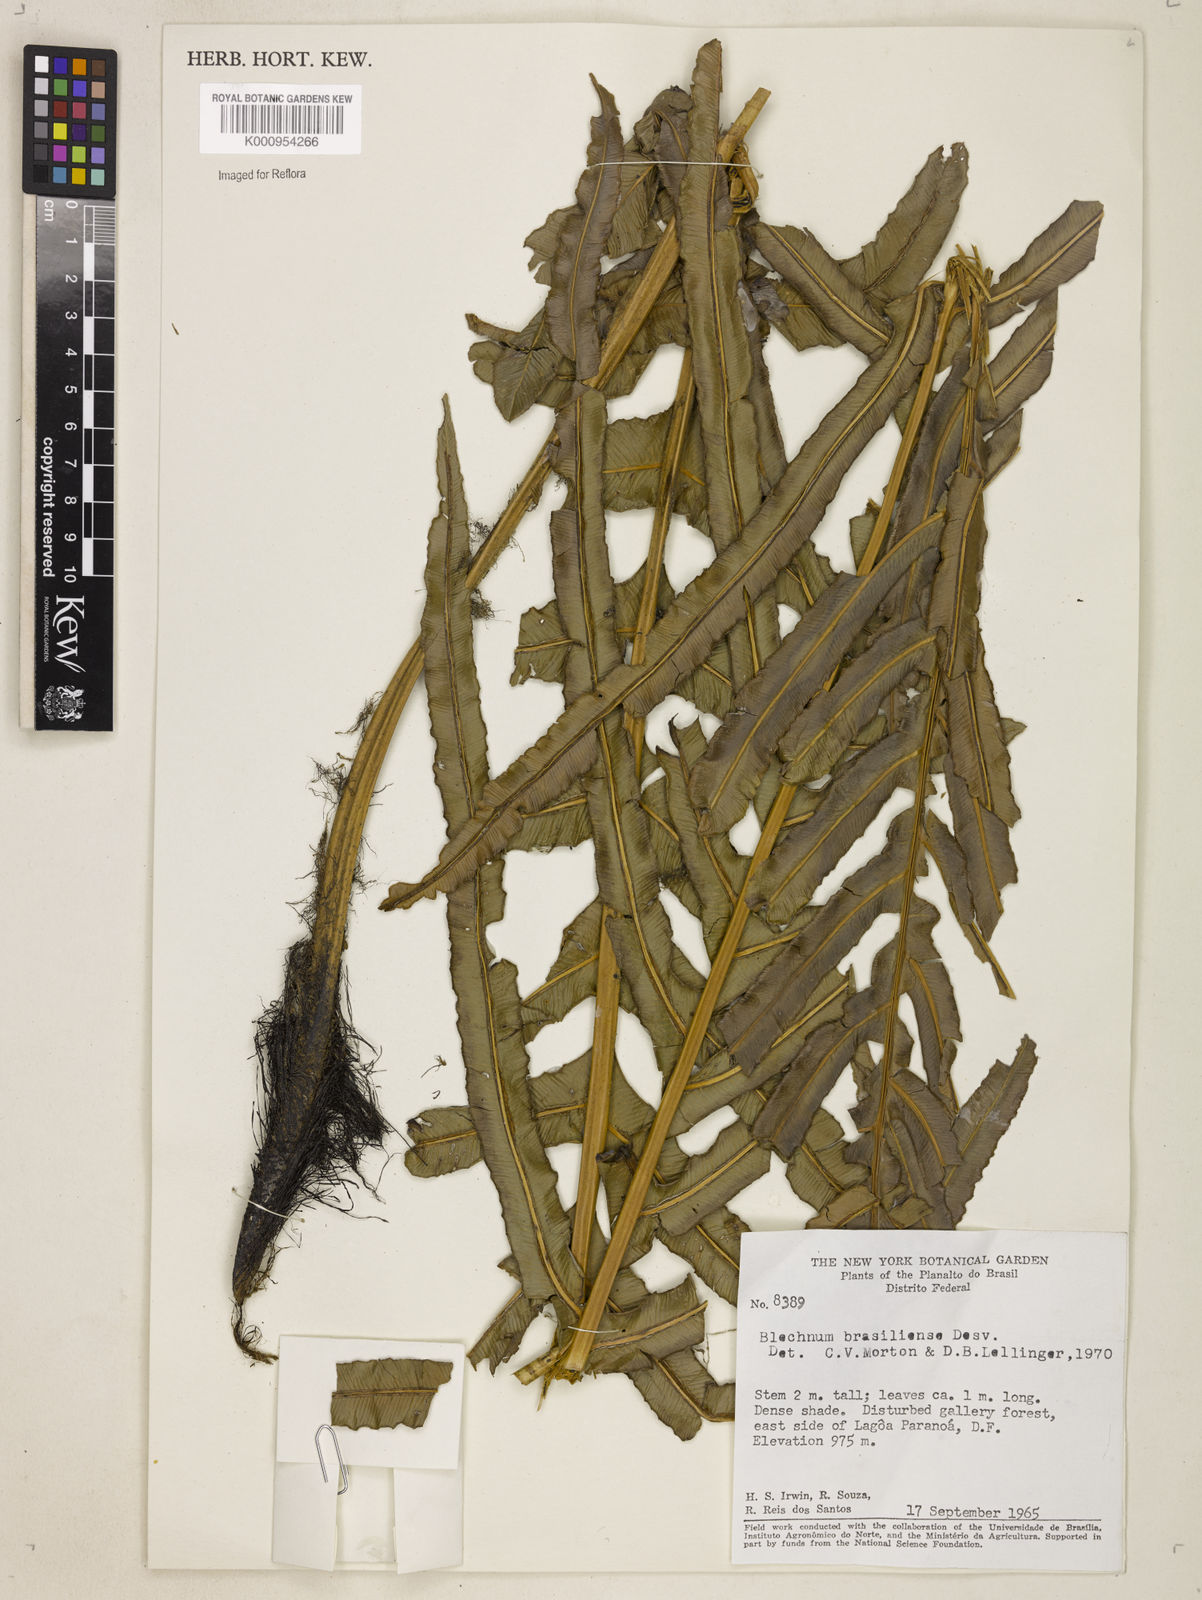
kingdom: Plantae
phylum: Tracheophyta
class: Polypodiopsida
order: Polypodiales
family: Blechnaceae
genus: Neoblechnum
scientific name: Neoblechnum brasiliense
